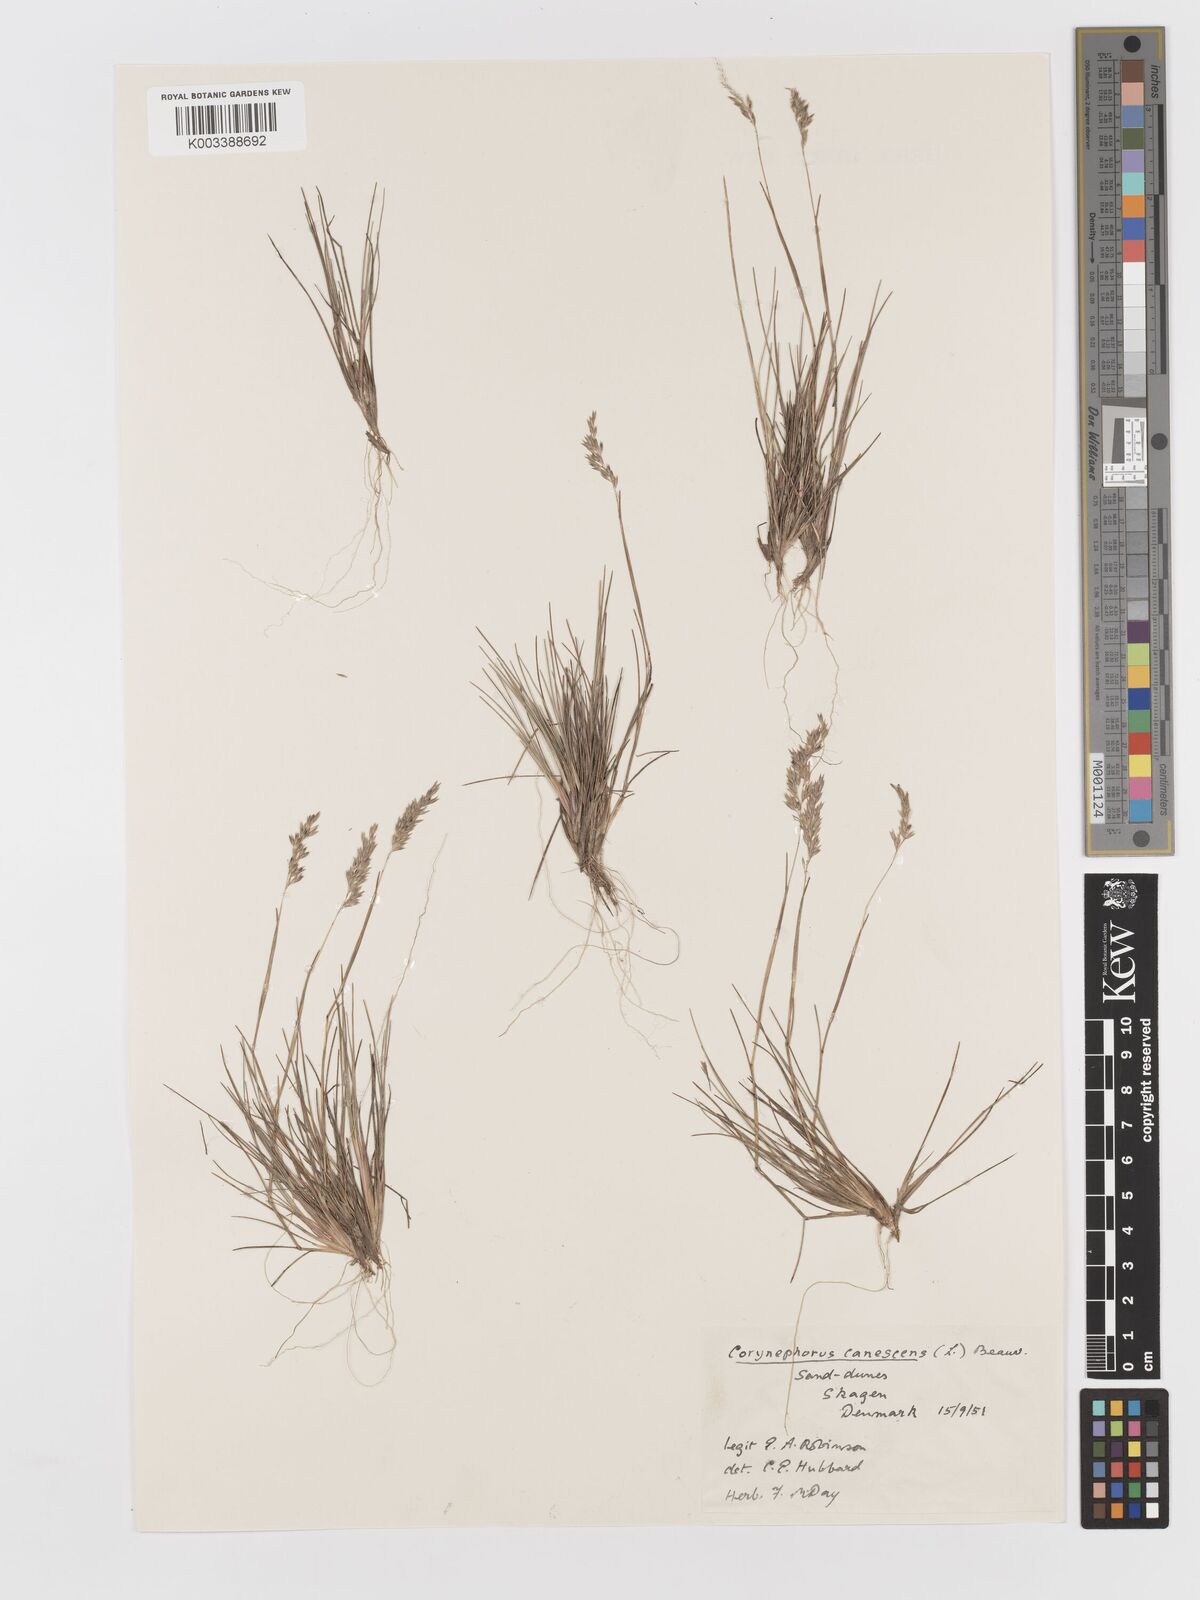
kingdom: Plantae
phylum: Tracheophyta
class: Liliopsida
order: Poales
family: Poaceae
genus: Corynephorus
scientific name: Corynephorus canescens
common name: Grey hair-grass
